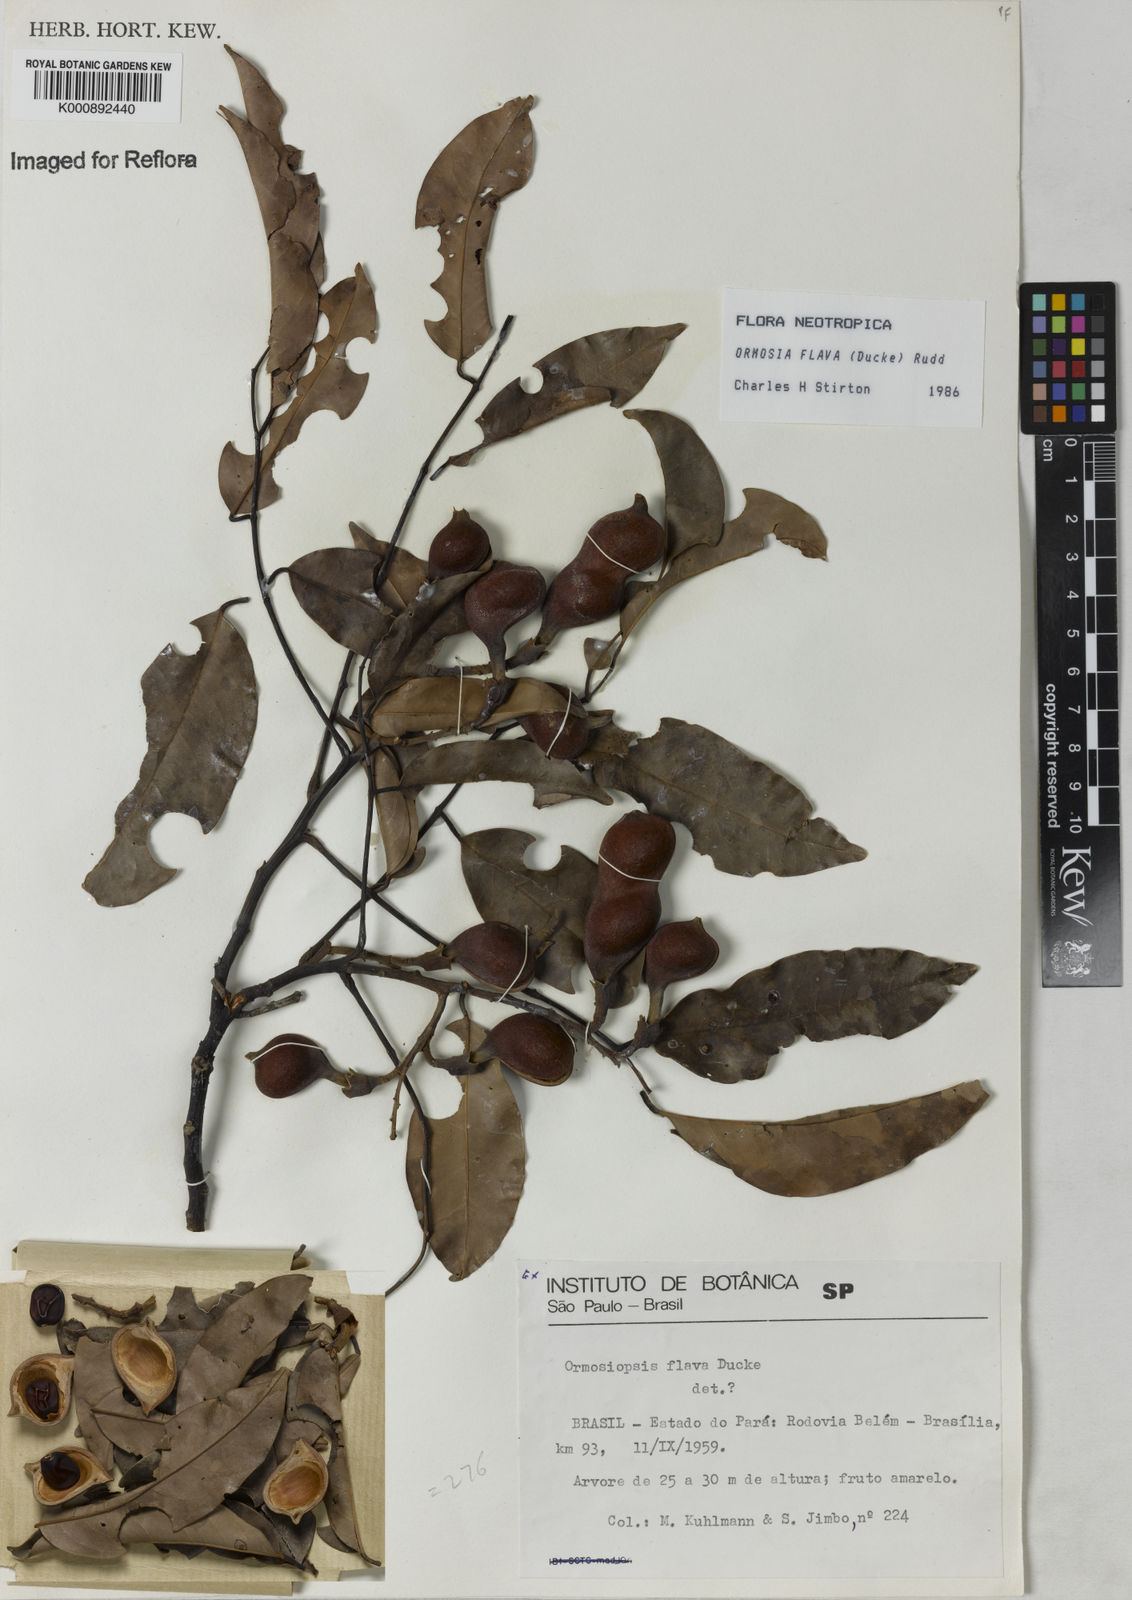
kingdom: Plantae
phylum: Tracheophyta
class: Magnoliopsida
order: Fabales
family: Fabaceae
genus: Ormosia
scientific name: Ormosia flava
